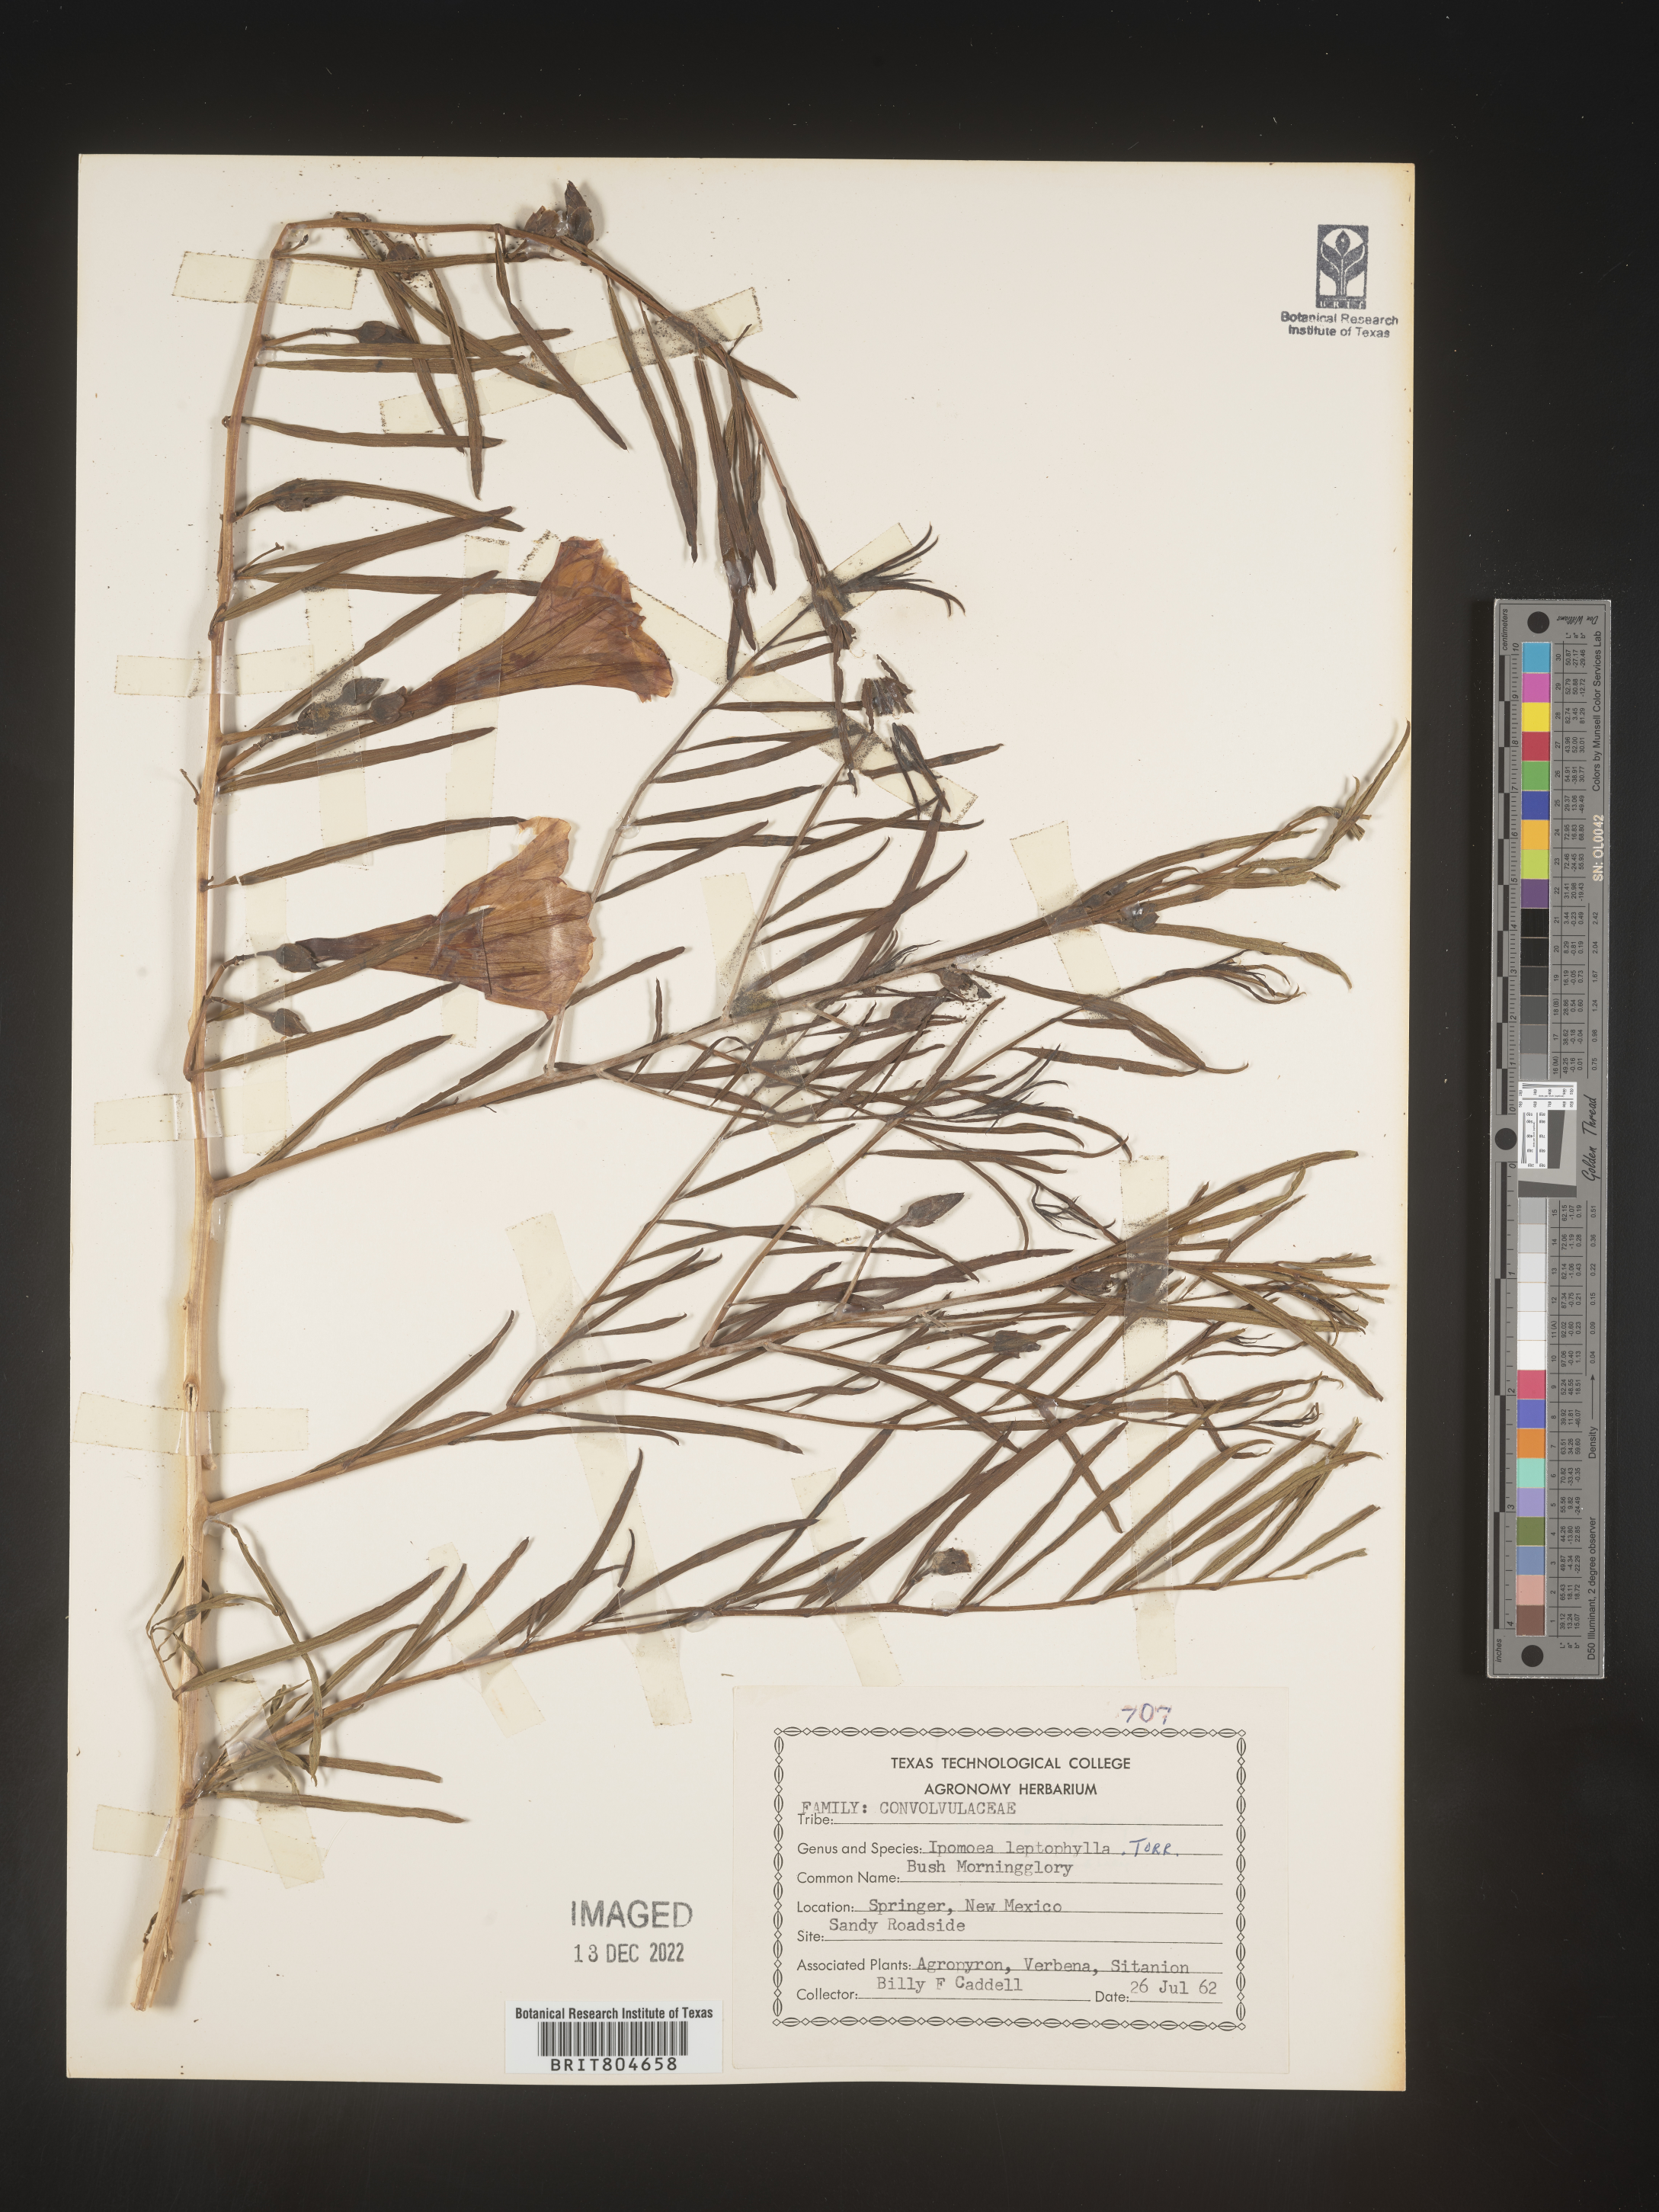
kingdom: Plantae
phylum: Tracheophyta
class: Magnoliopsida
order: Solanales
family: Convolvulaceae
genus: Ipomoea
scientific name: Ipomoea leptophylla
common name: Bush moonflower
